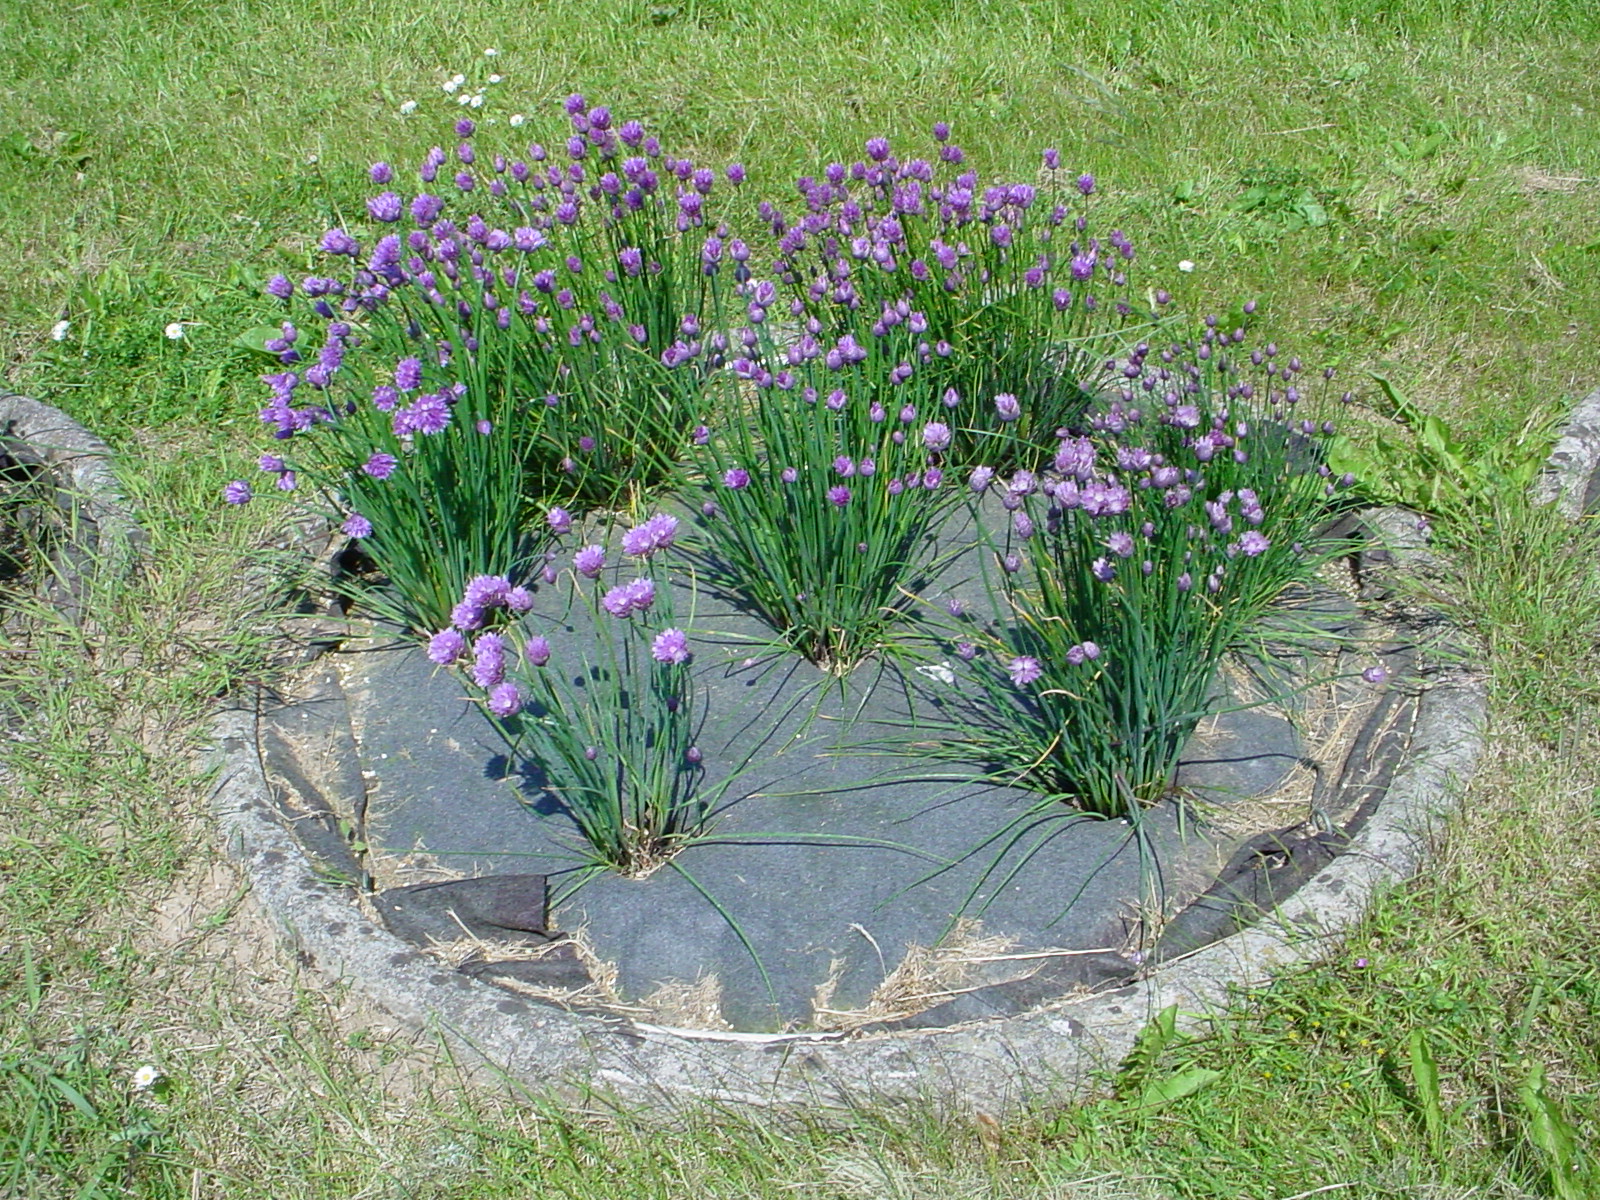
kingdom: Plantae
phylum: Tracheophyta
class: Liliopsida
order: Asparagales
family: Amaryllidaceae
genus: Allium
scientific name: Allium schoenoprasum
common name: Chives
